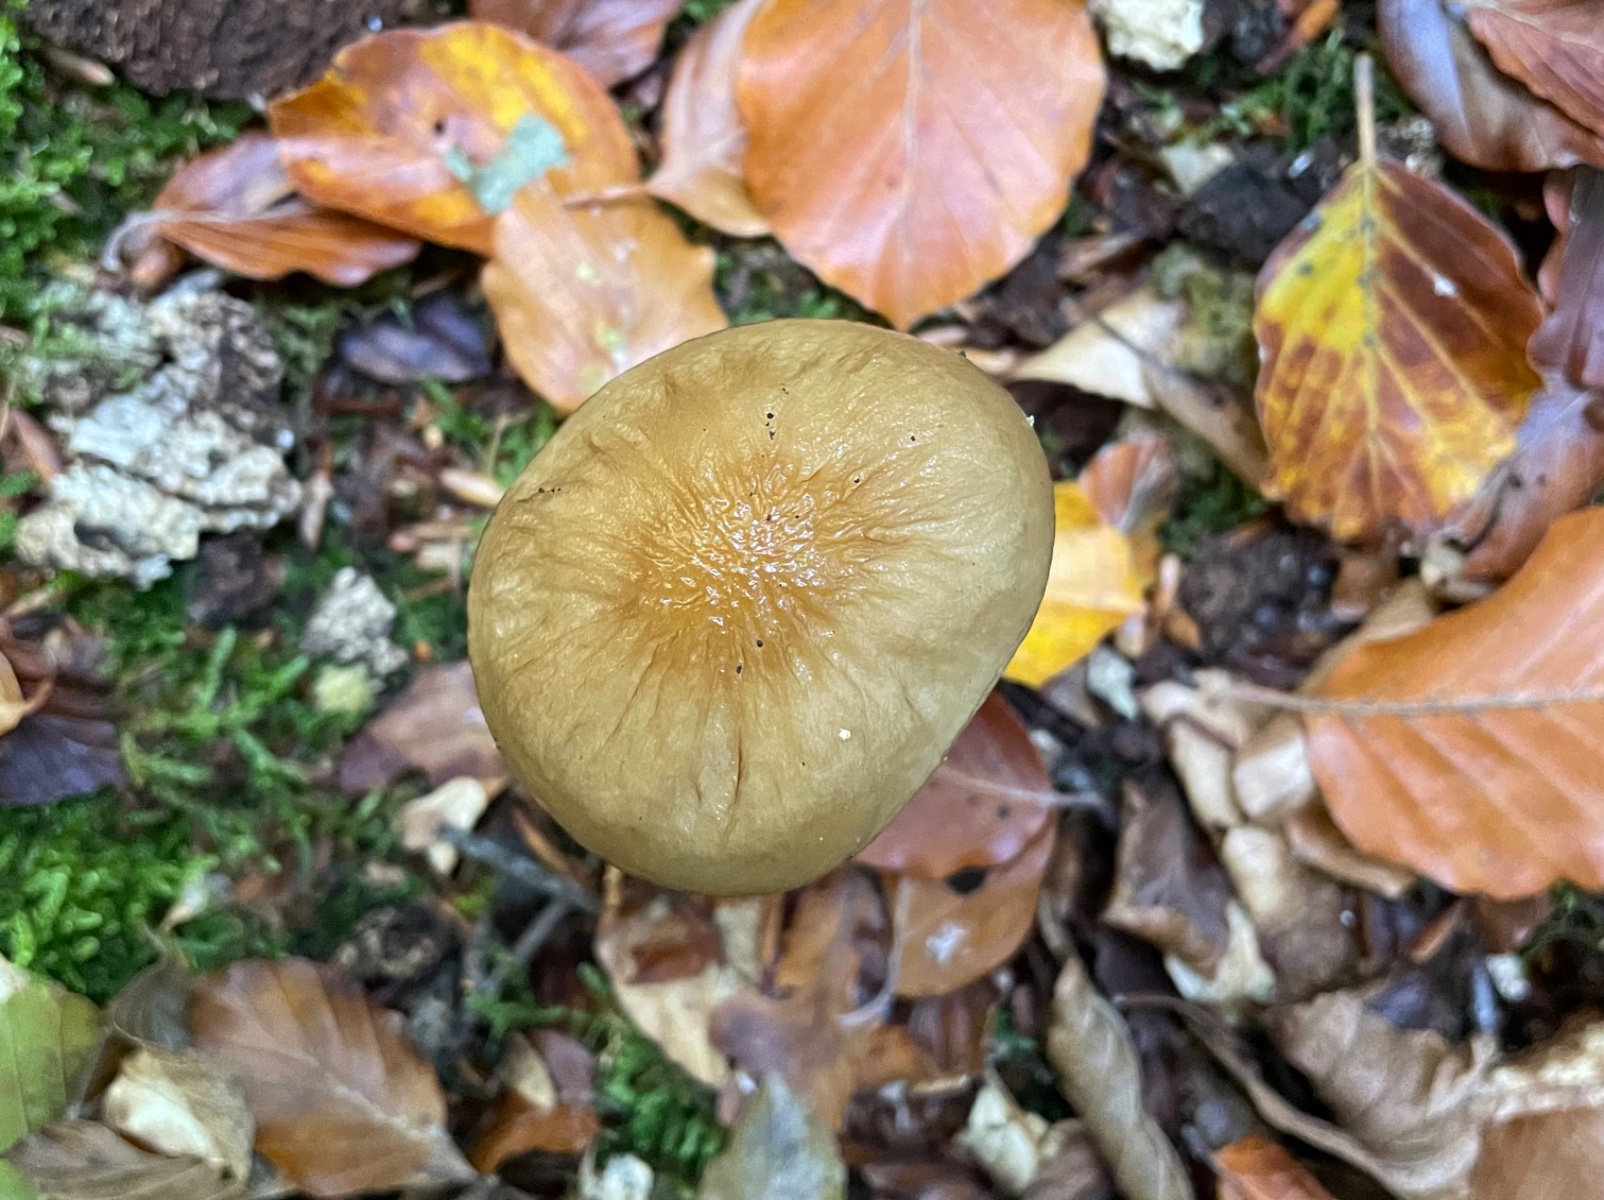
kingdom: Fungi
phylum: Basidiomycota
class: Agaricomycetes
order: Agaricales
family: Physalacriaceae
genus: Hymenopellis
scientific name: Hymenopellis radicata
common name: almindelig pælerodshat
